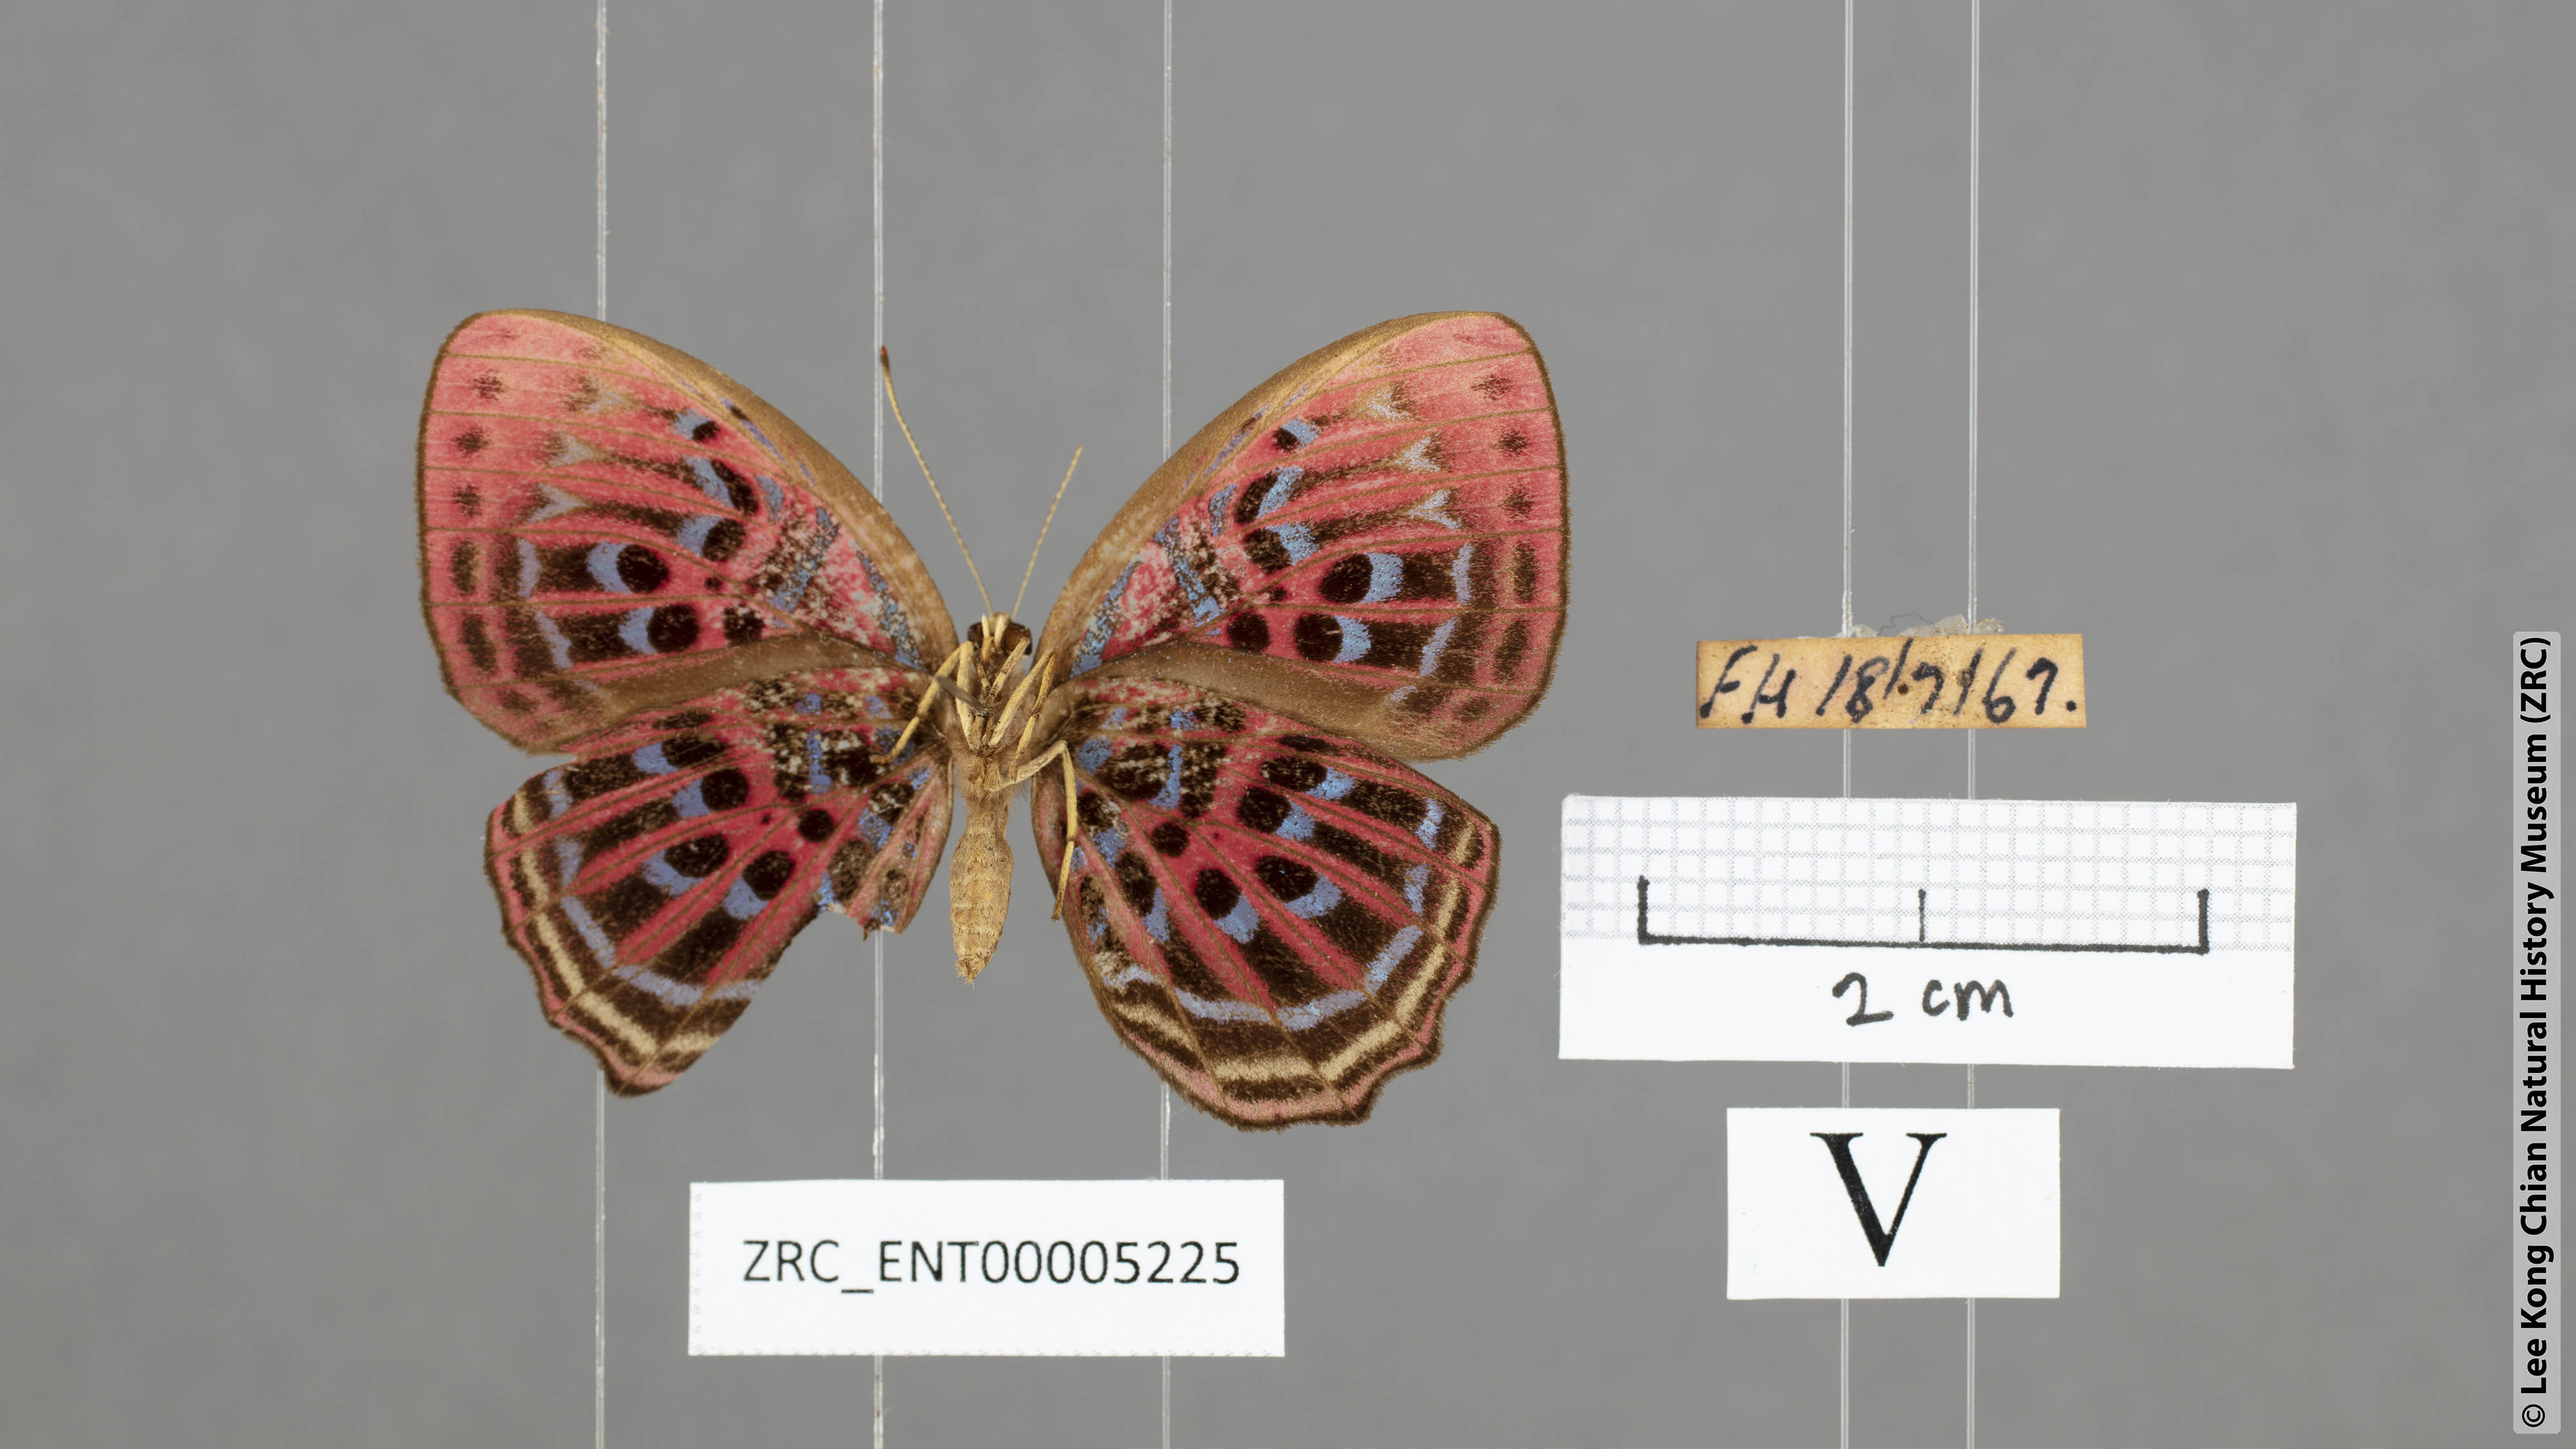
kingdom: Animalia
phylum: Arthropoda
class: Insecta
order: Lepidoptera
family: Riodinidae
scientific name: Riodinidae
